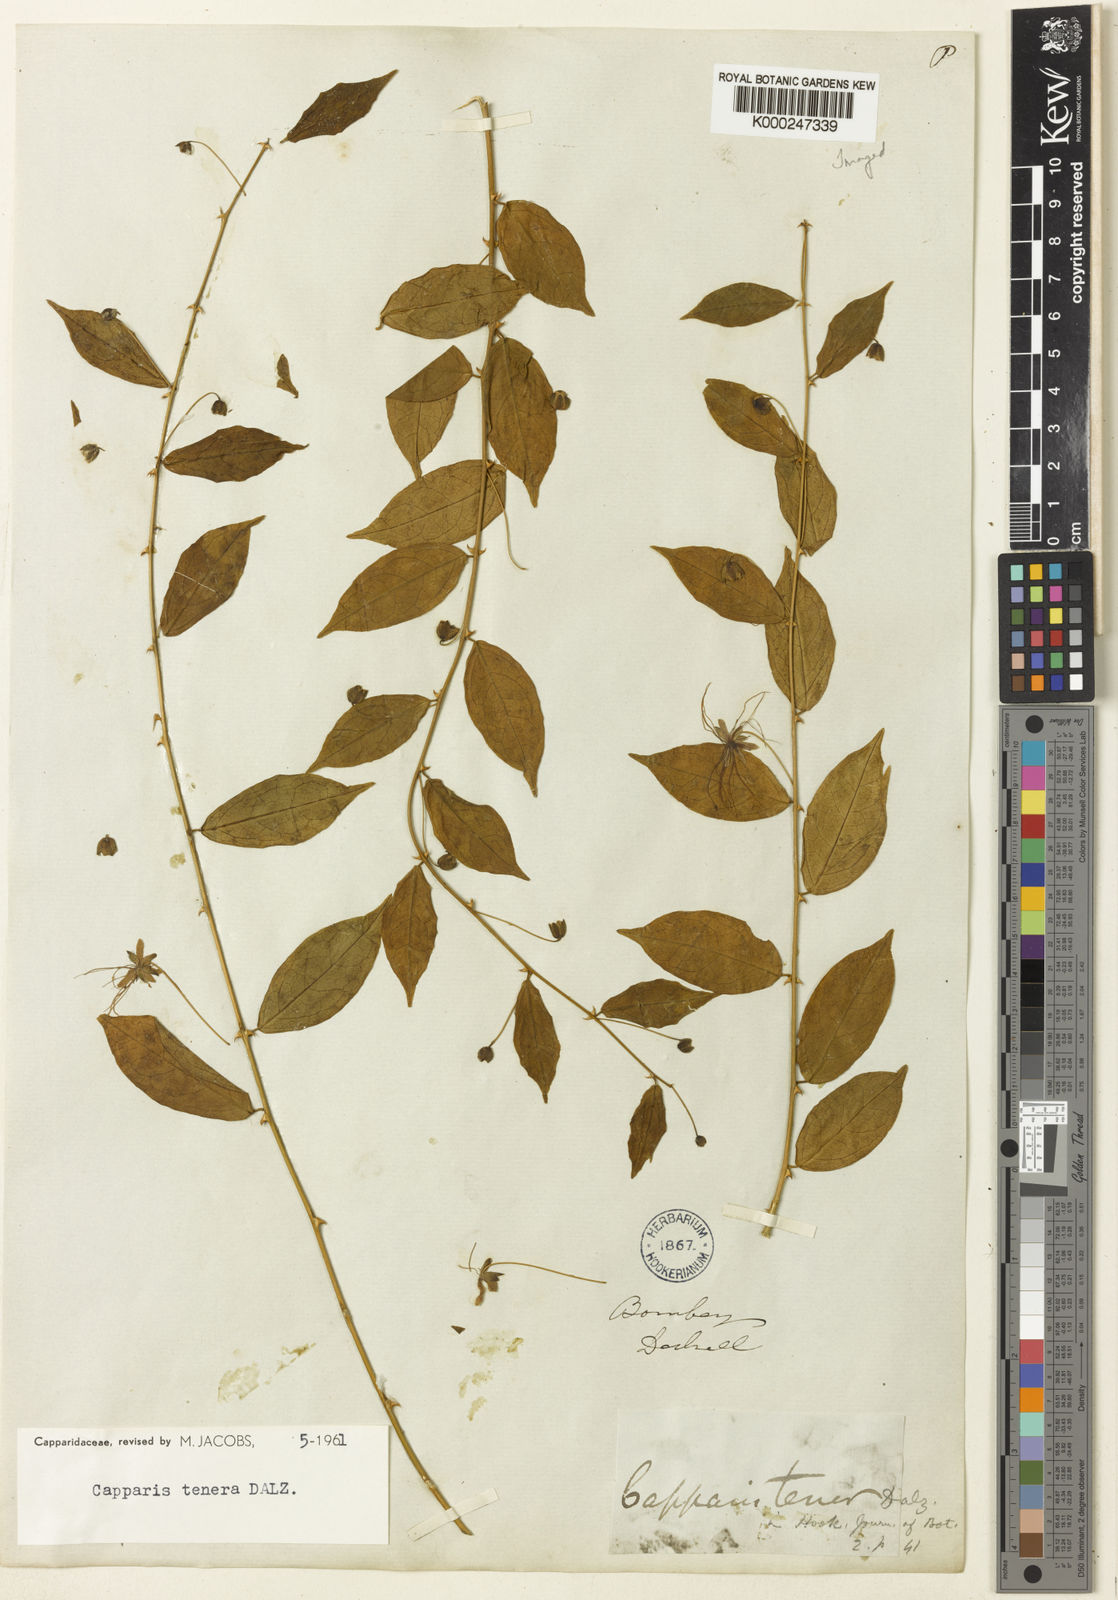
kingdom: Plantae
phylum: Tracheophyta
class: Magnoliopsida
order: Brassicales
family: Capparaceae
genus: Capparis
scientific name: Capparis tenera
